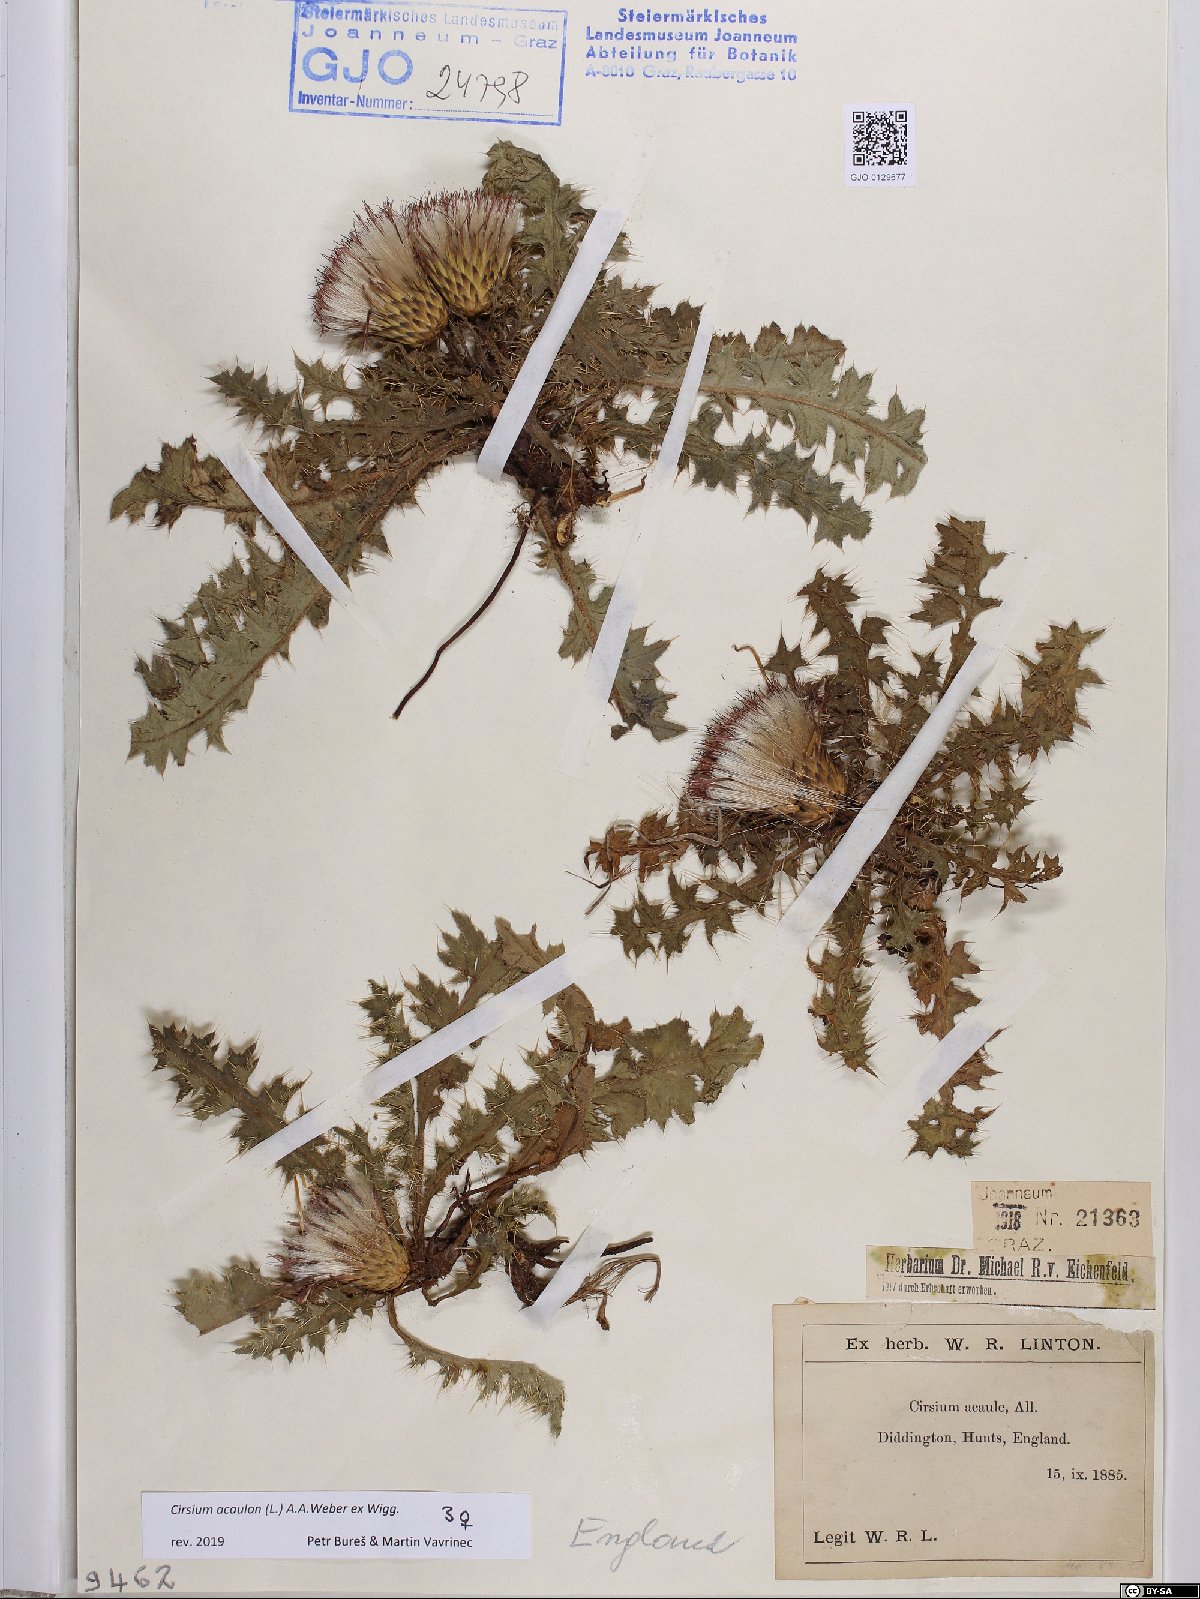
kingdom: Plantae
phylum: Tracheophyta
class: Magnoliopsida
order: Asterales
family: Asteraceae
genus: Cirsium
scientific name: Cirsium acaulon
